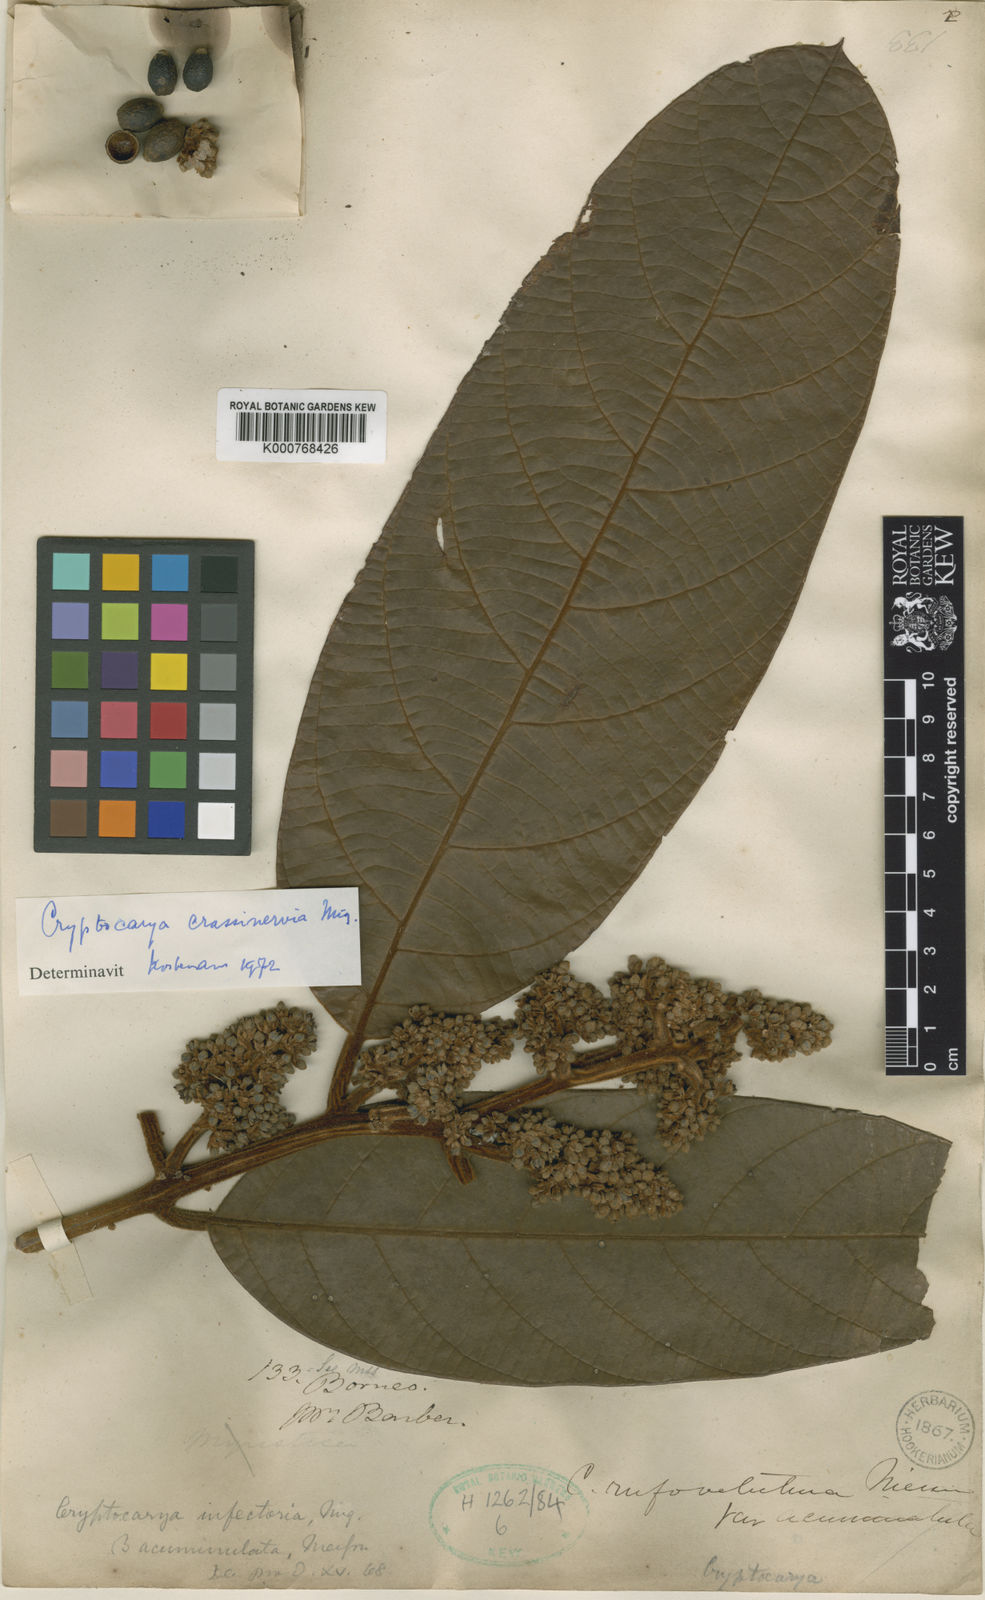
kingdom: Plantae
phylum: Tracheophyta
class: Magnoliopsida
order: Laurales
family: Lauraceae
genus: Cryptocarya
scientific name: Cryptocarya diversifolia
